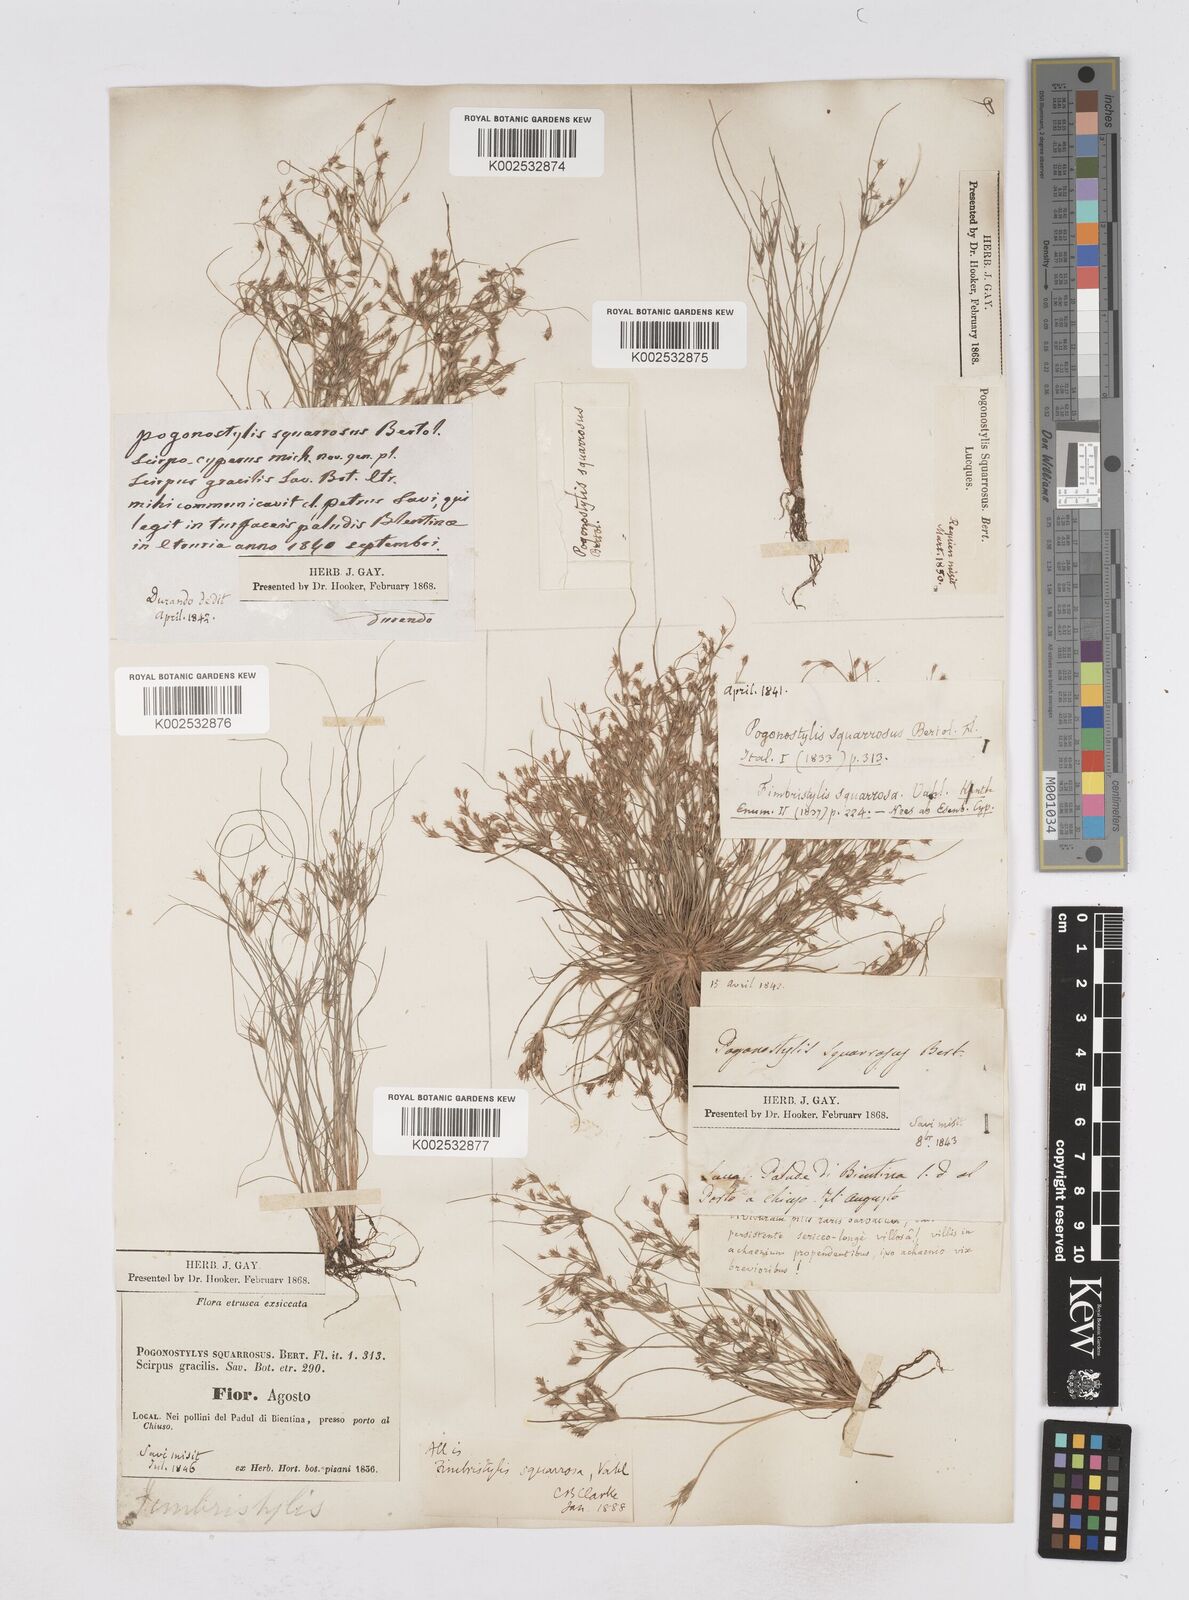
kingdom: Plantae
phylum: Tracheophyta
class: Liliopsida
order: Poales
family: Cyperaceae
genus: Fimbristylis
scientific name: Fimbristylis squarrosa
